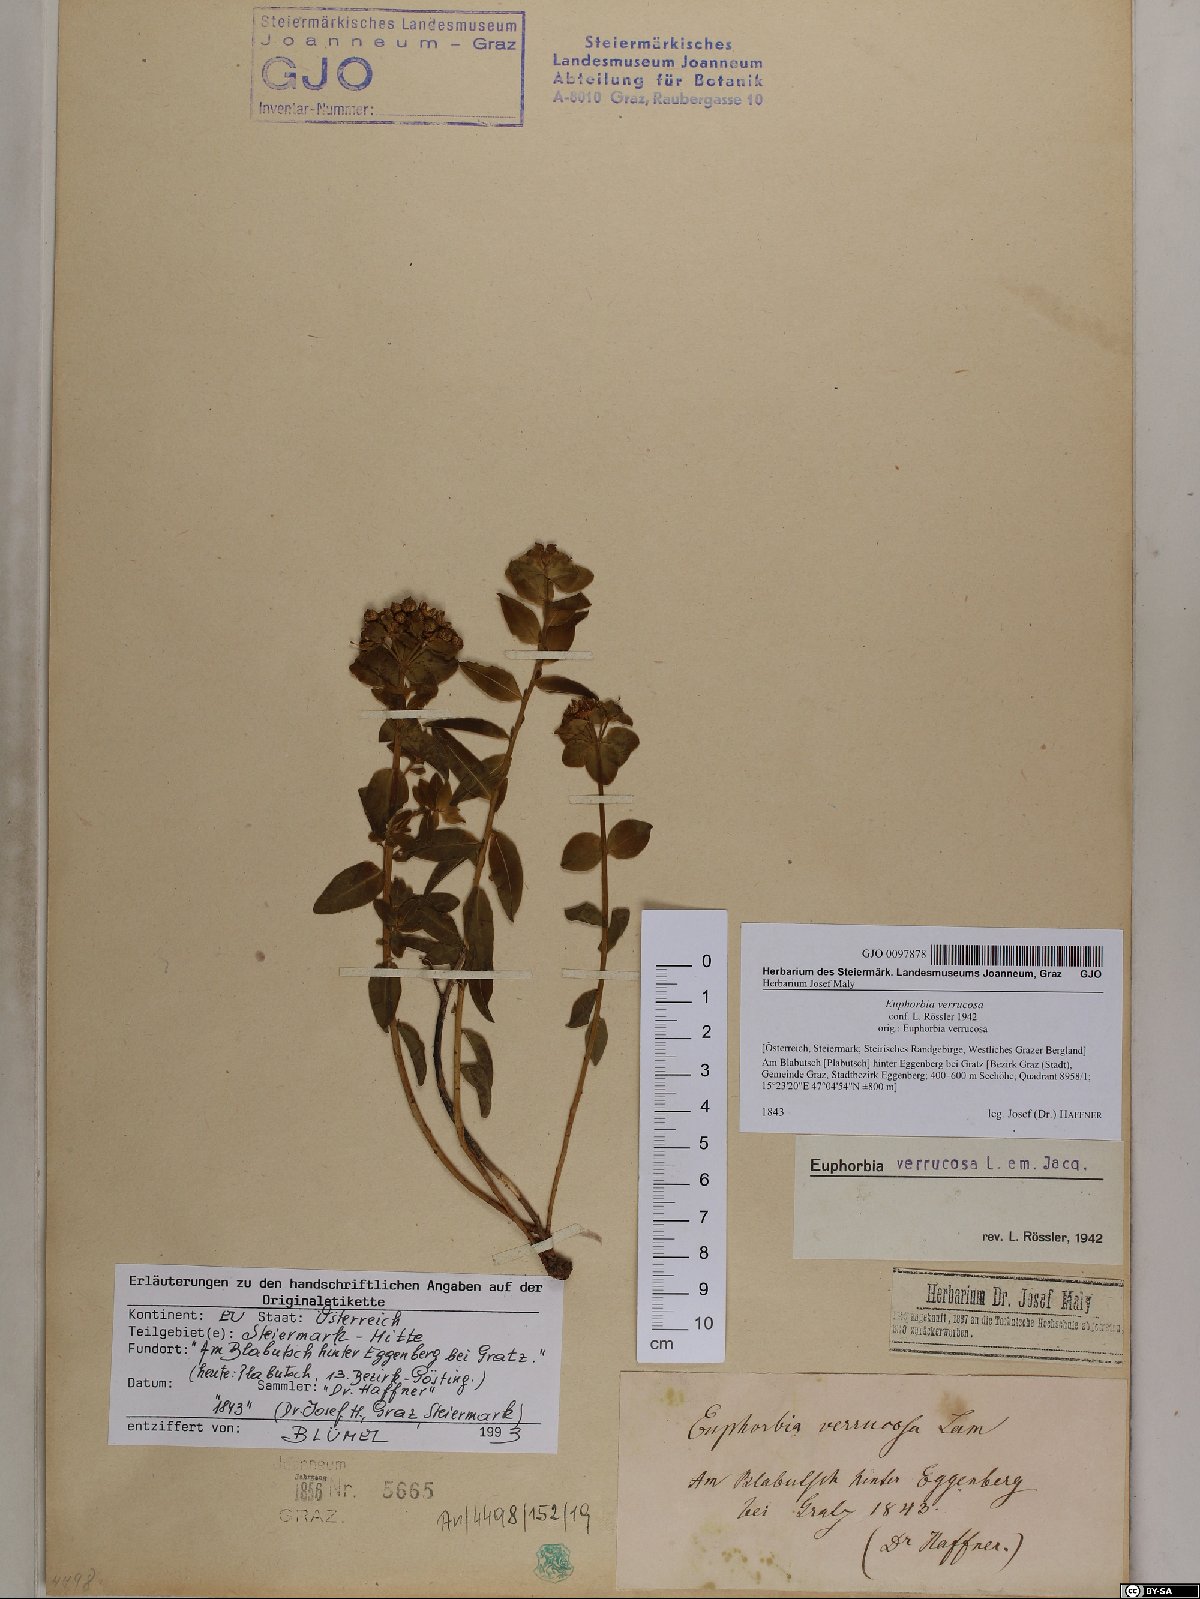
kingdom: Plantae
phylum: Tracheophyta
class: Magnoliopsida
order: Malpighiales
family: Euphorbiaceae
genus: Euphorbia
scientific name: Euphorbia verrucosa
